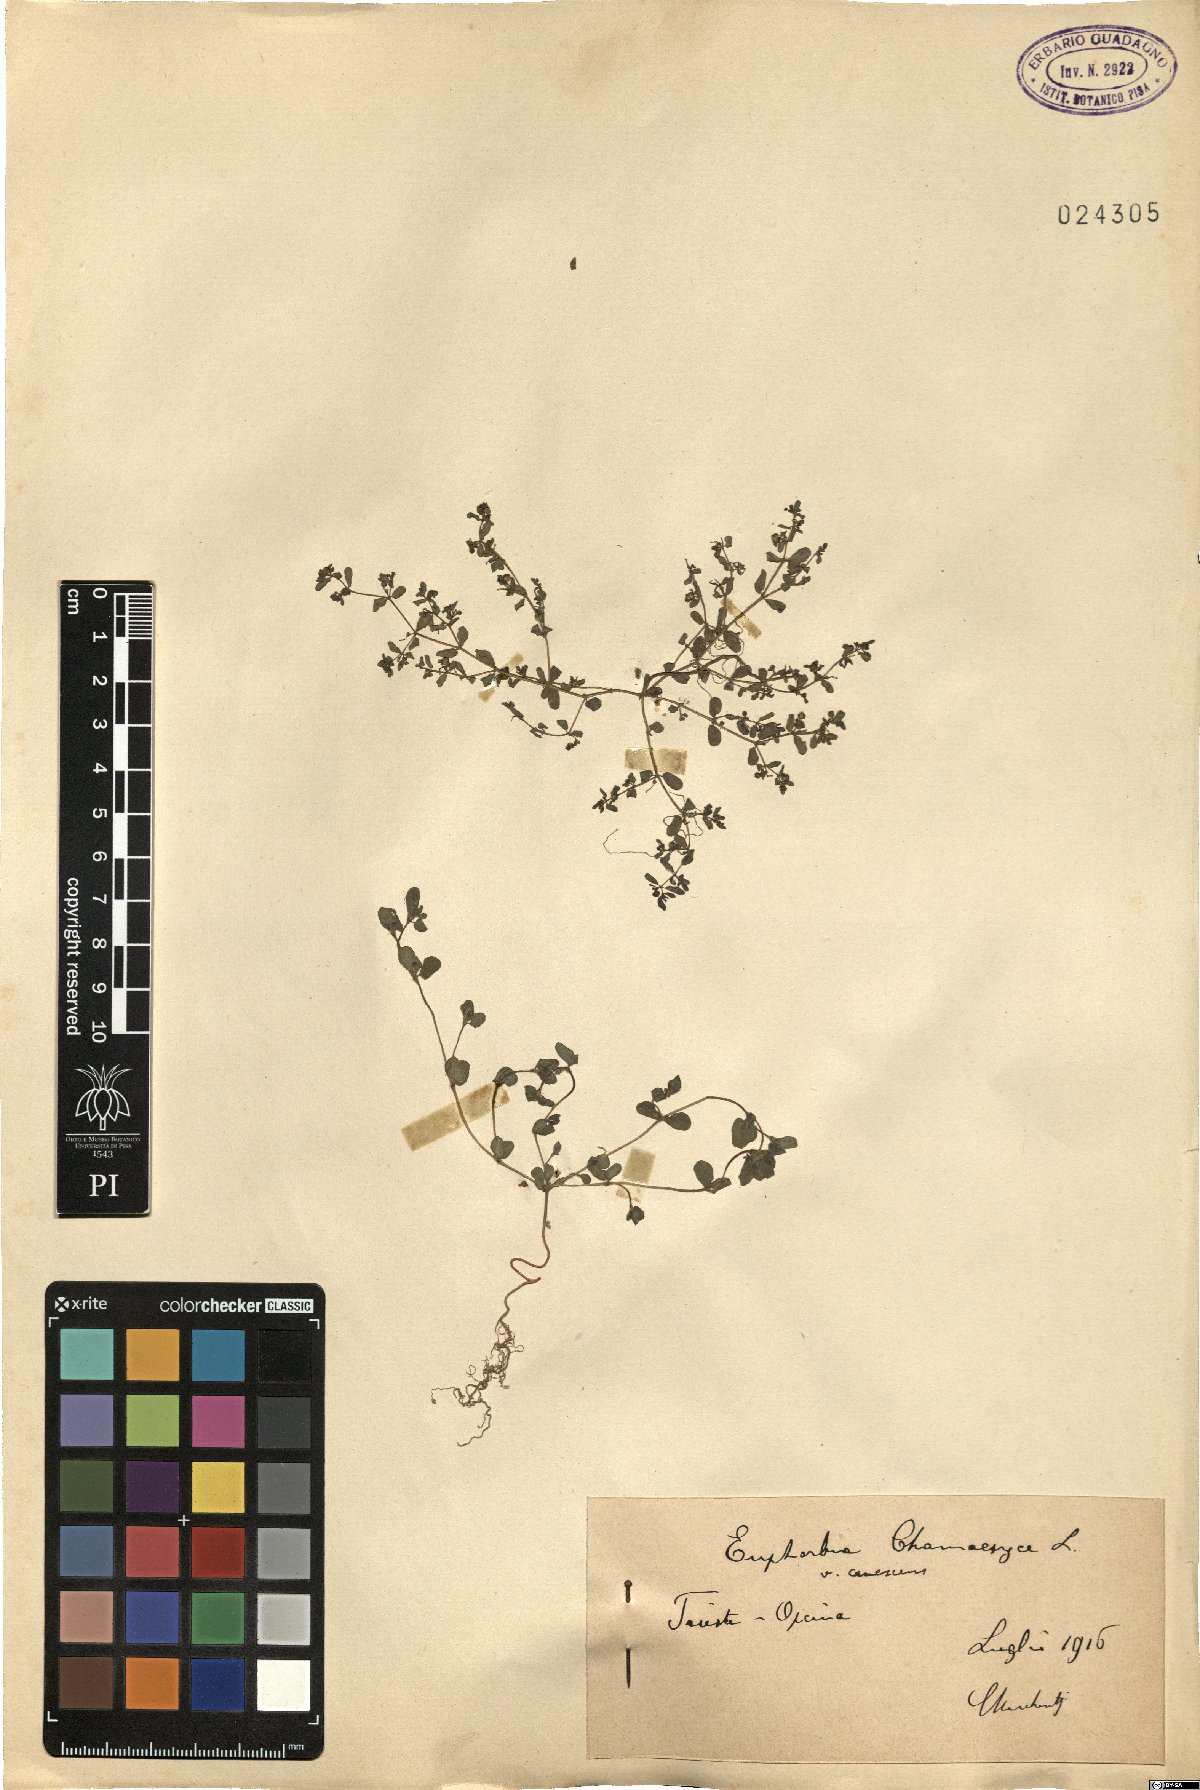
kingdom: Plantae
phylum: Tracheophyta
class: Magnoliopsida
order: Malpighiales
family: Euphorbiaceae
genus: Euphorbia
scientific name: Euphorbia chamaesyce
